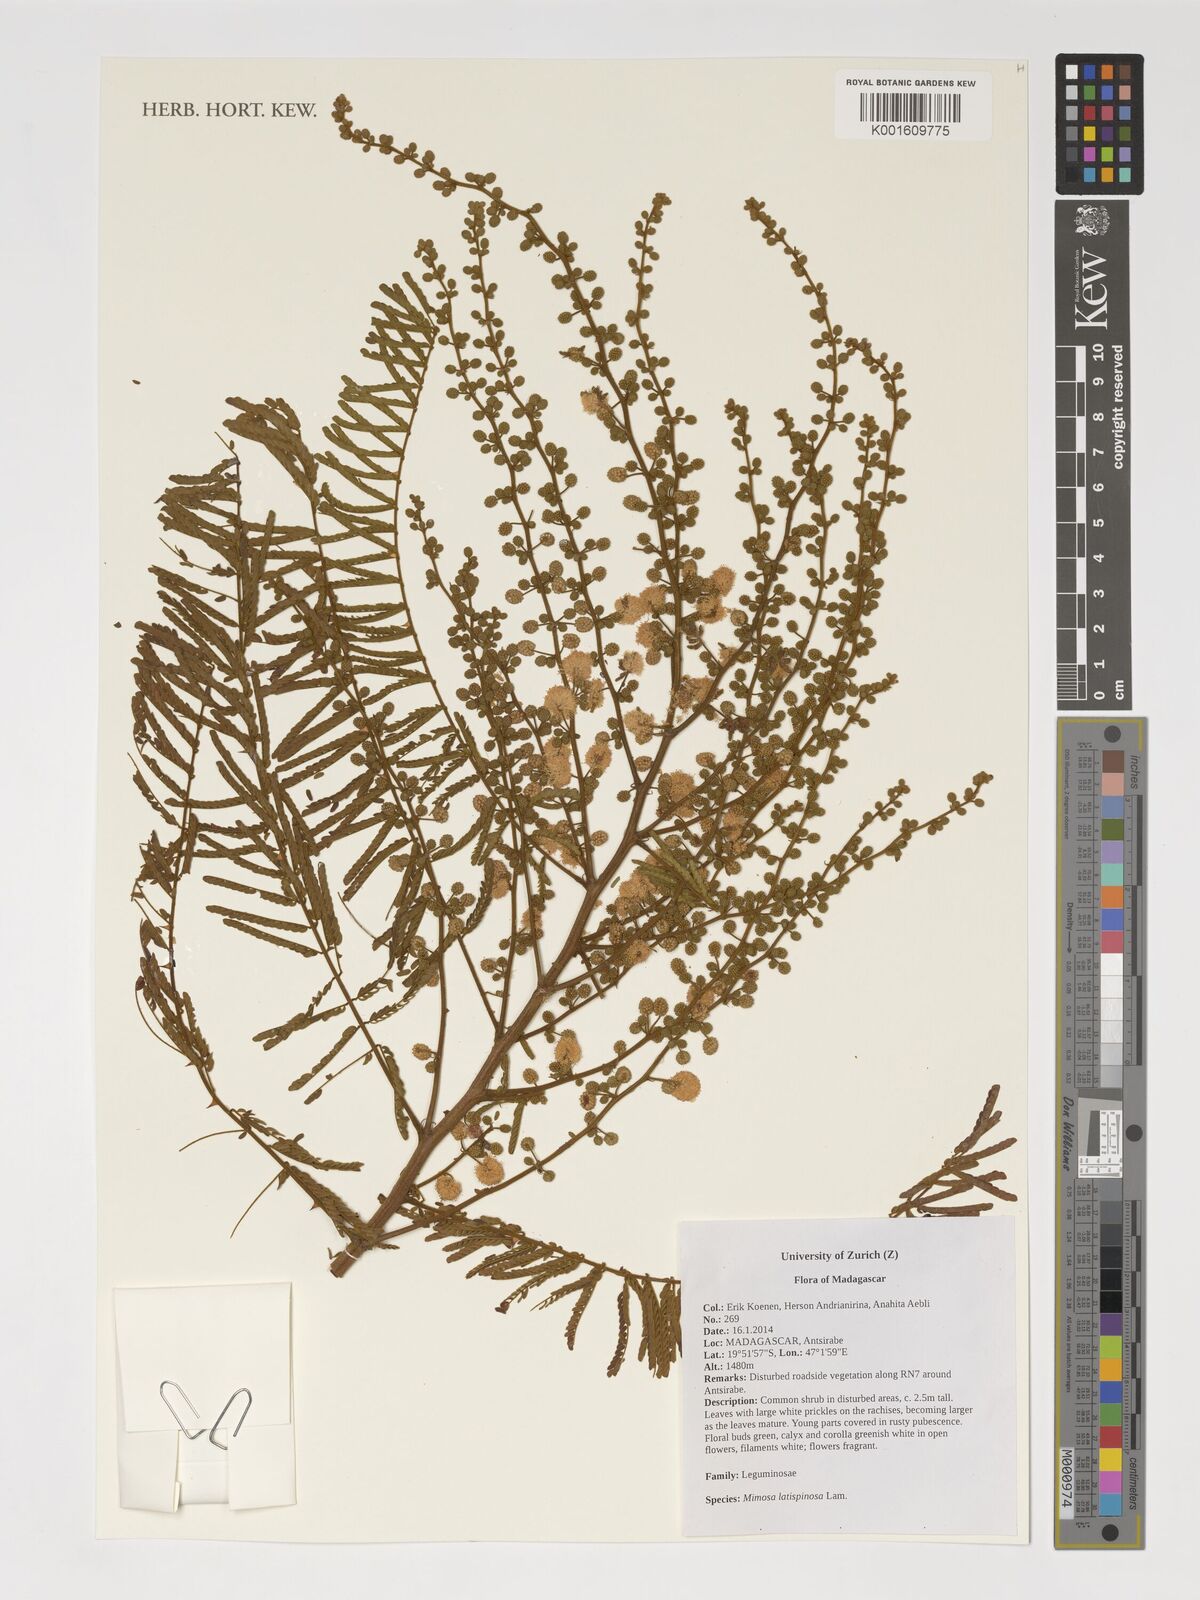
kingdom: Plantae
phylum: Tracheophyta
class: Magnoliopsida
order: Fabales
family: Fabaceae
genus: Mimosa
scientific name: Mimosa latispinosa
